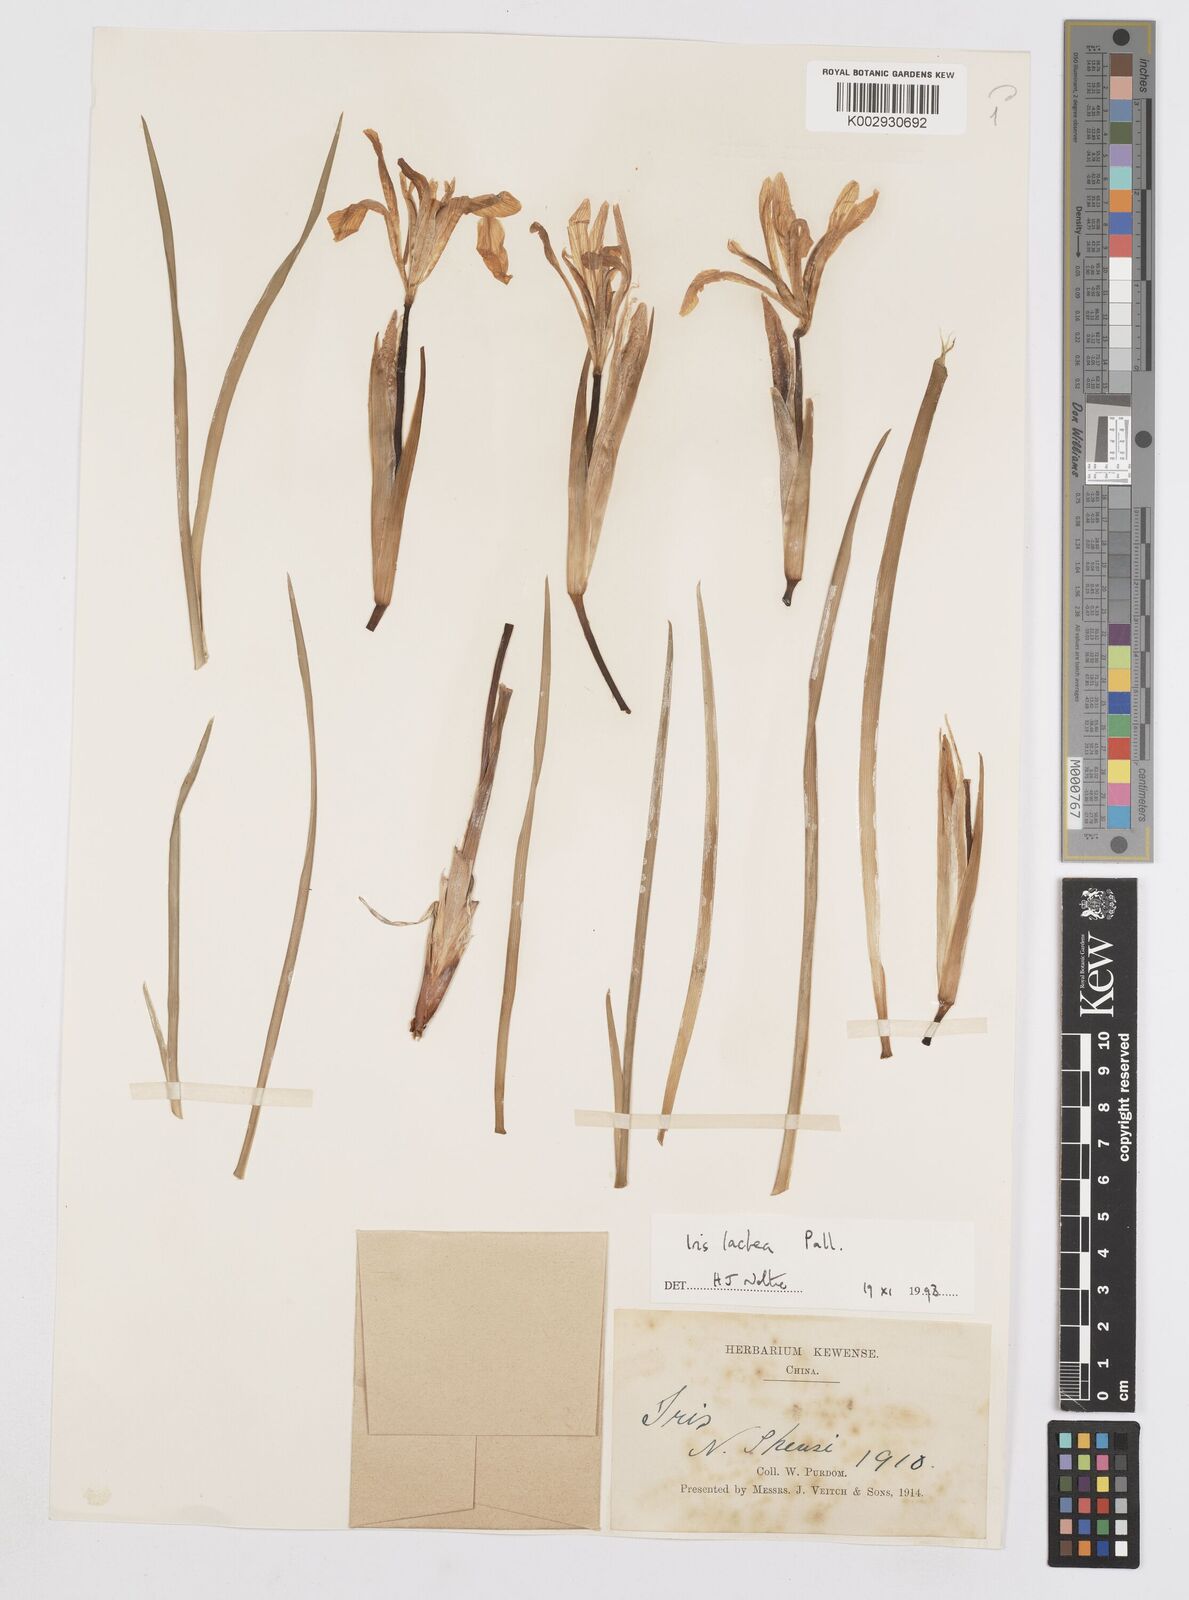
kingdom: Plantae
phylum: Tracheophyta
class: Liliopsida
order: Asparagales
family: Iridaceae
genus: Iris
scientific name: Iris ensata
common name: Beaked iris
